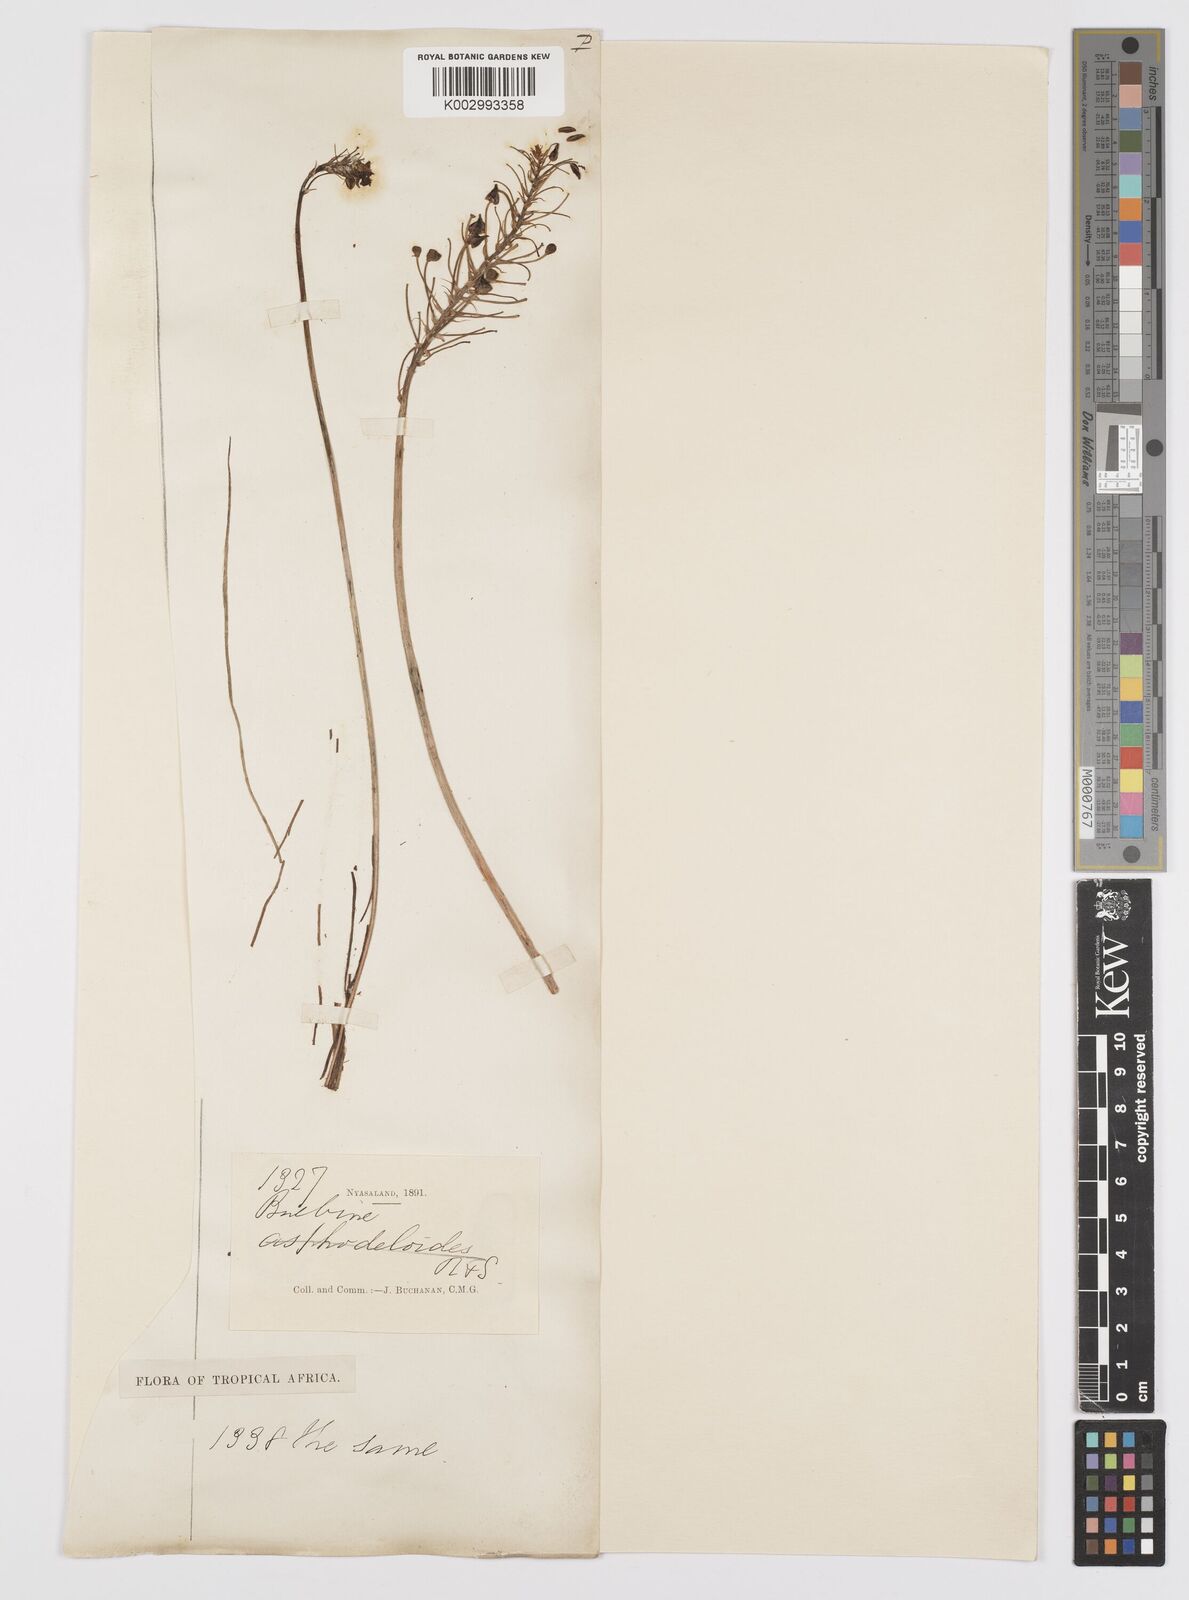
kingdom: Plantae
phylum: Tracheophyta
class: Liliopsida
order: Asparagales
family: Asphodelaceae
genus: Bulbine
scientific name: Bulbine abyssinica
